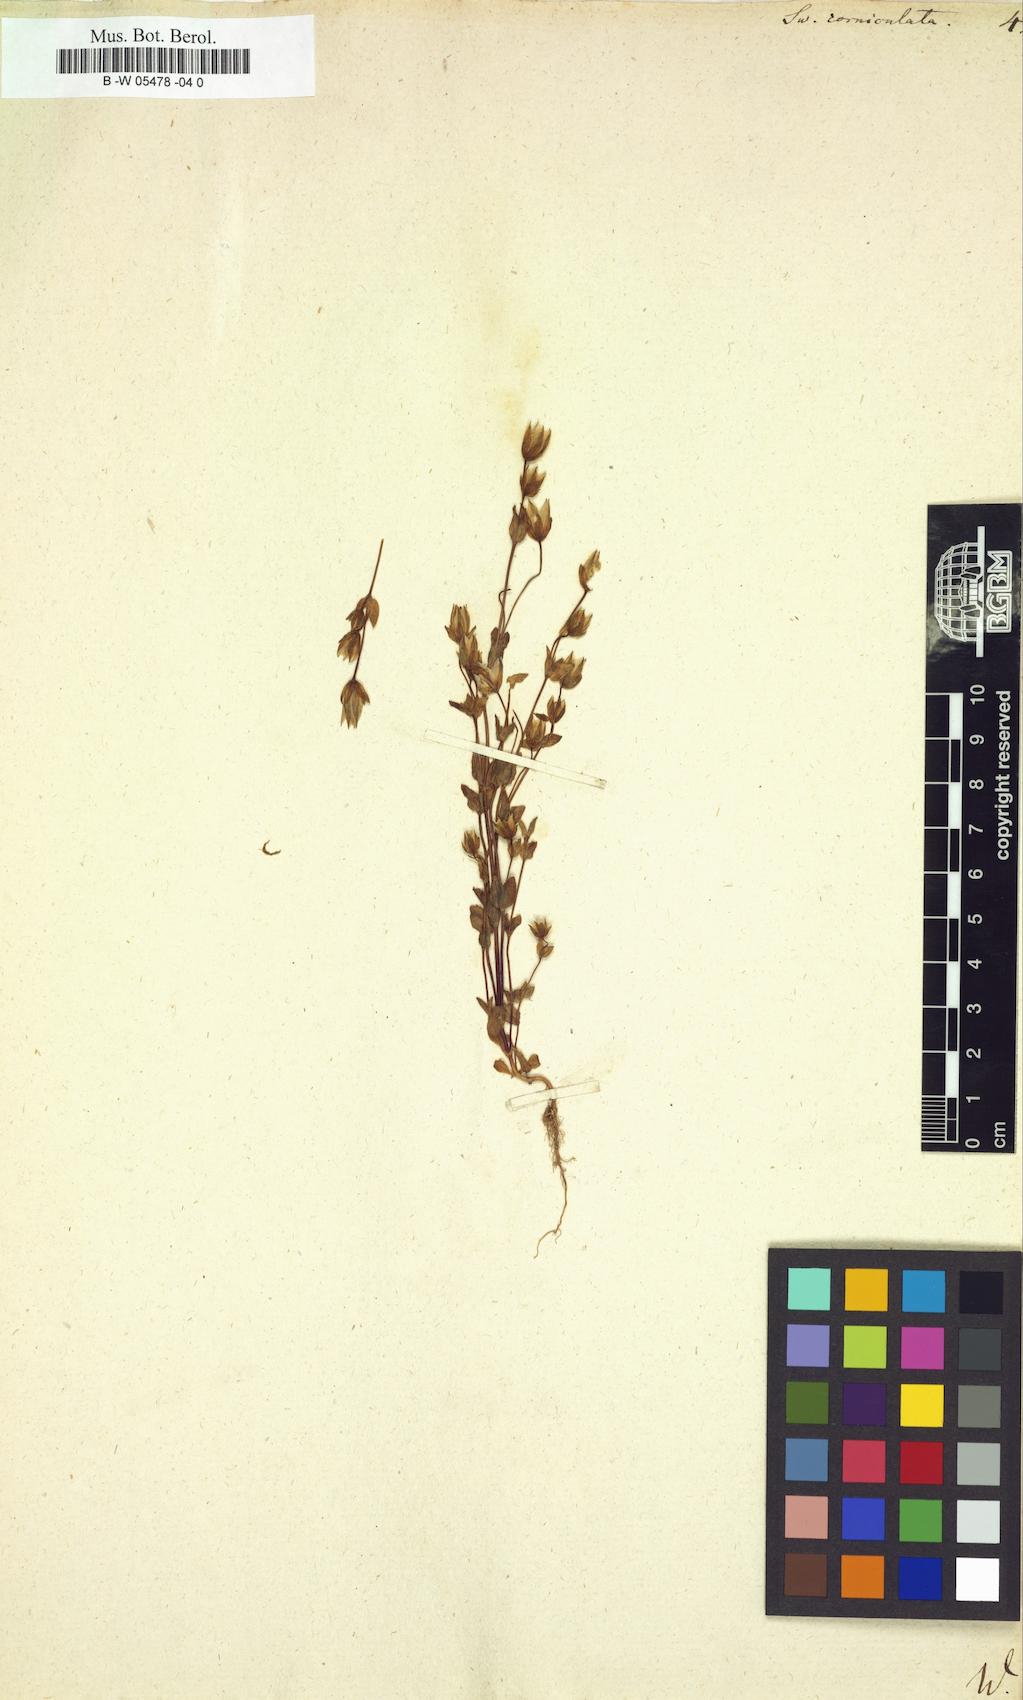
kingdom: Plantae
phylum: Tracheophyta
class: Magnoliopsida
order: Gentianales
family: Gentianaceae
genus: Halenia
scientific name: Halenia corniculata
